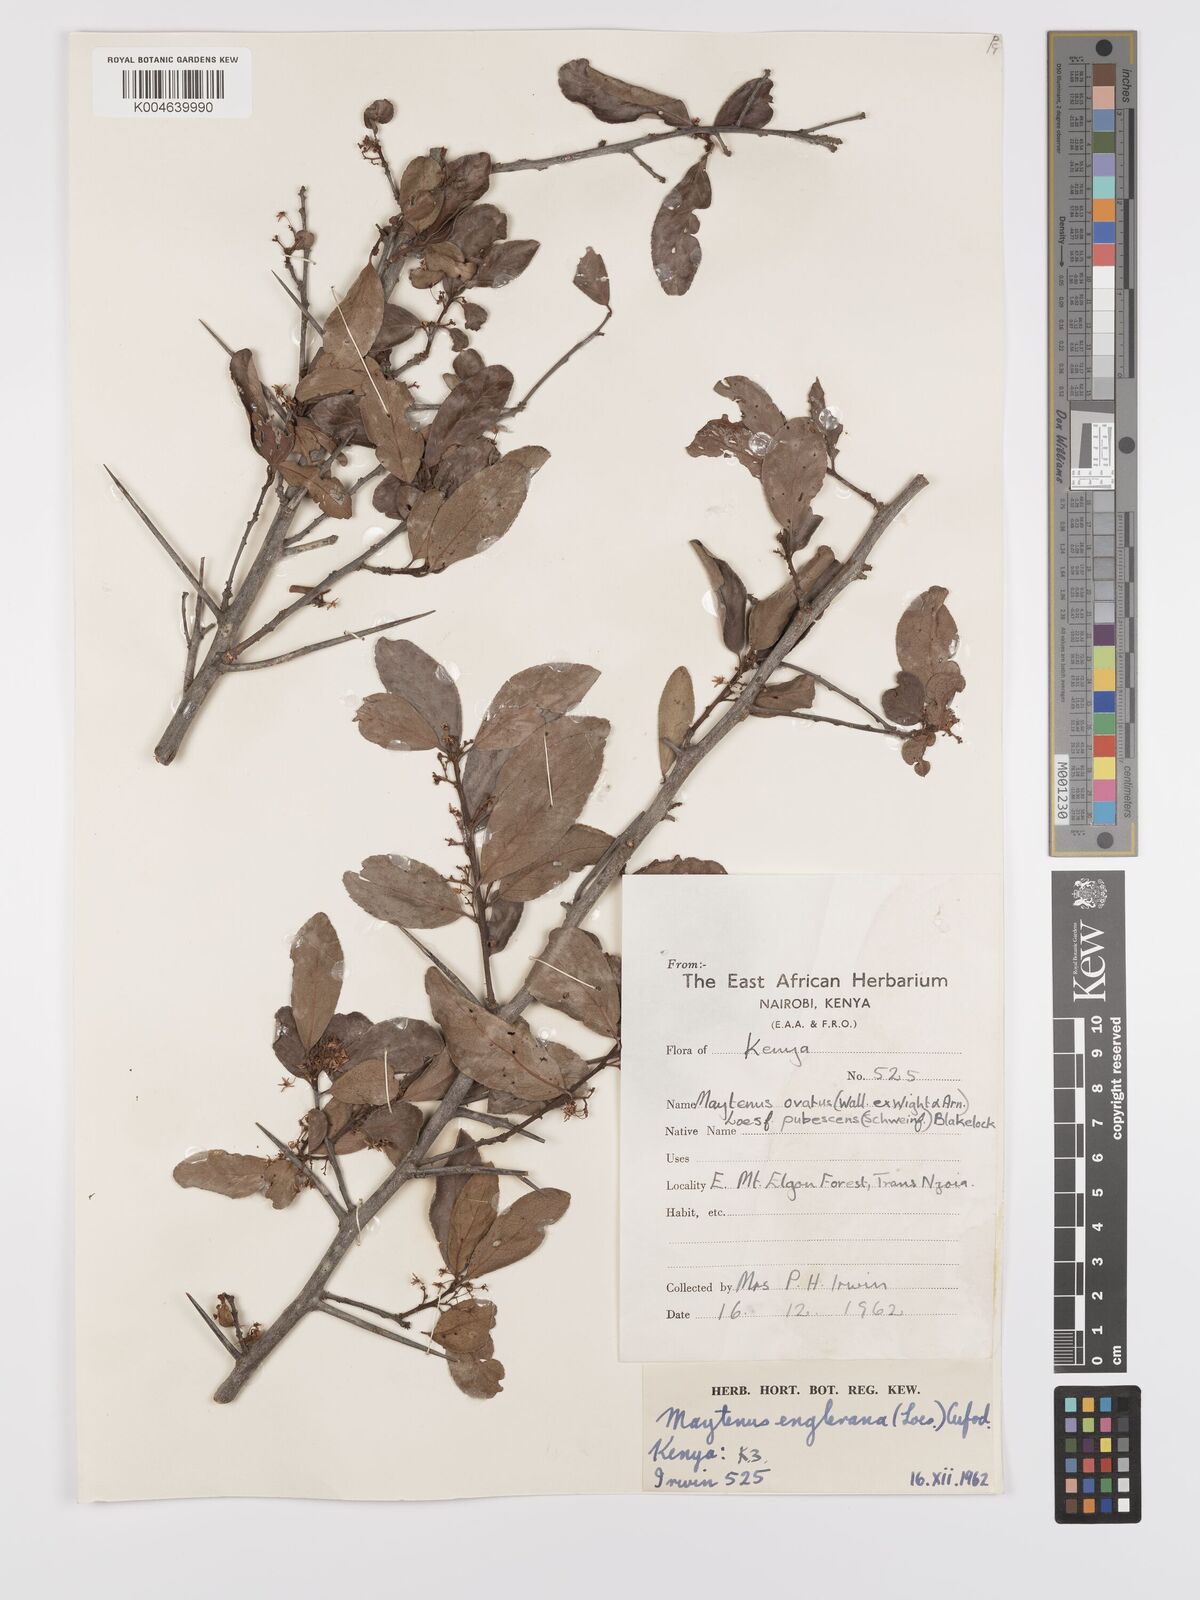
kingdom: Plantae
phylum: Tracheophyta
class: Magnoliopsida
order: Celastrales
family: Celastraceae
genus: Gymnosporia
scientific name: Gymnosporia arbutifolia
